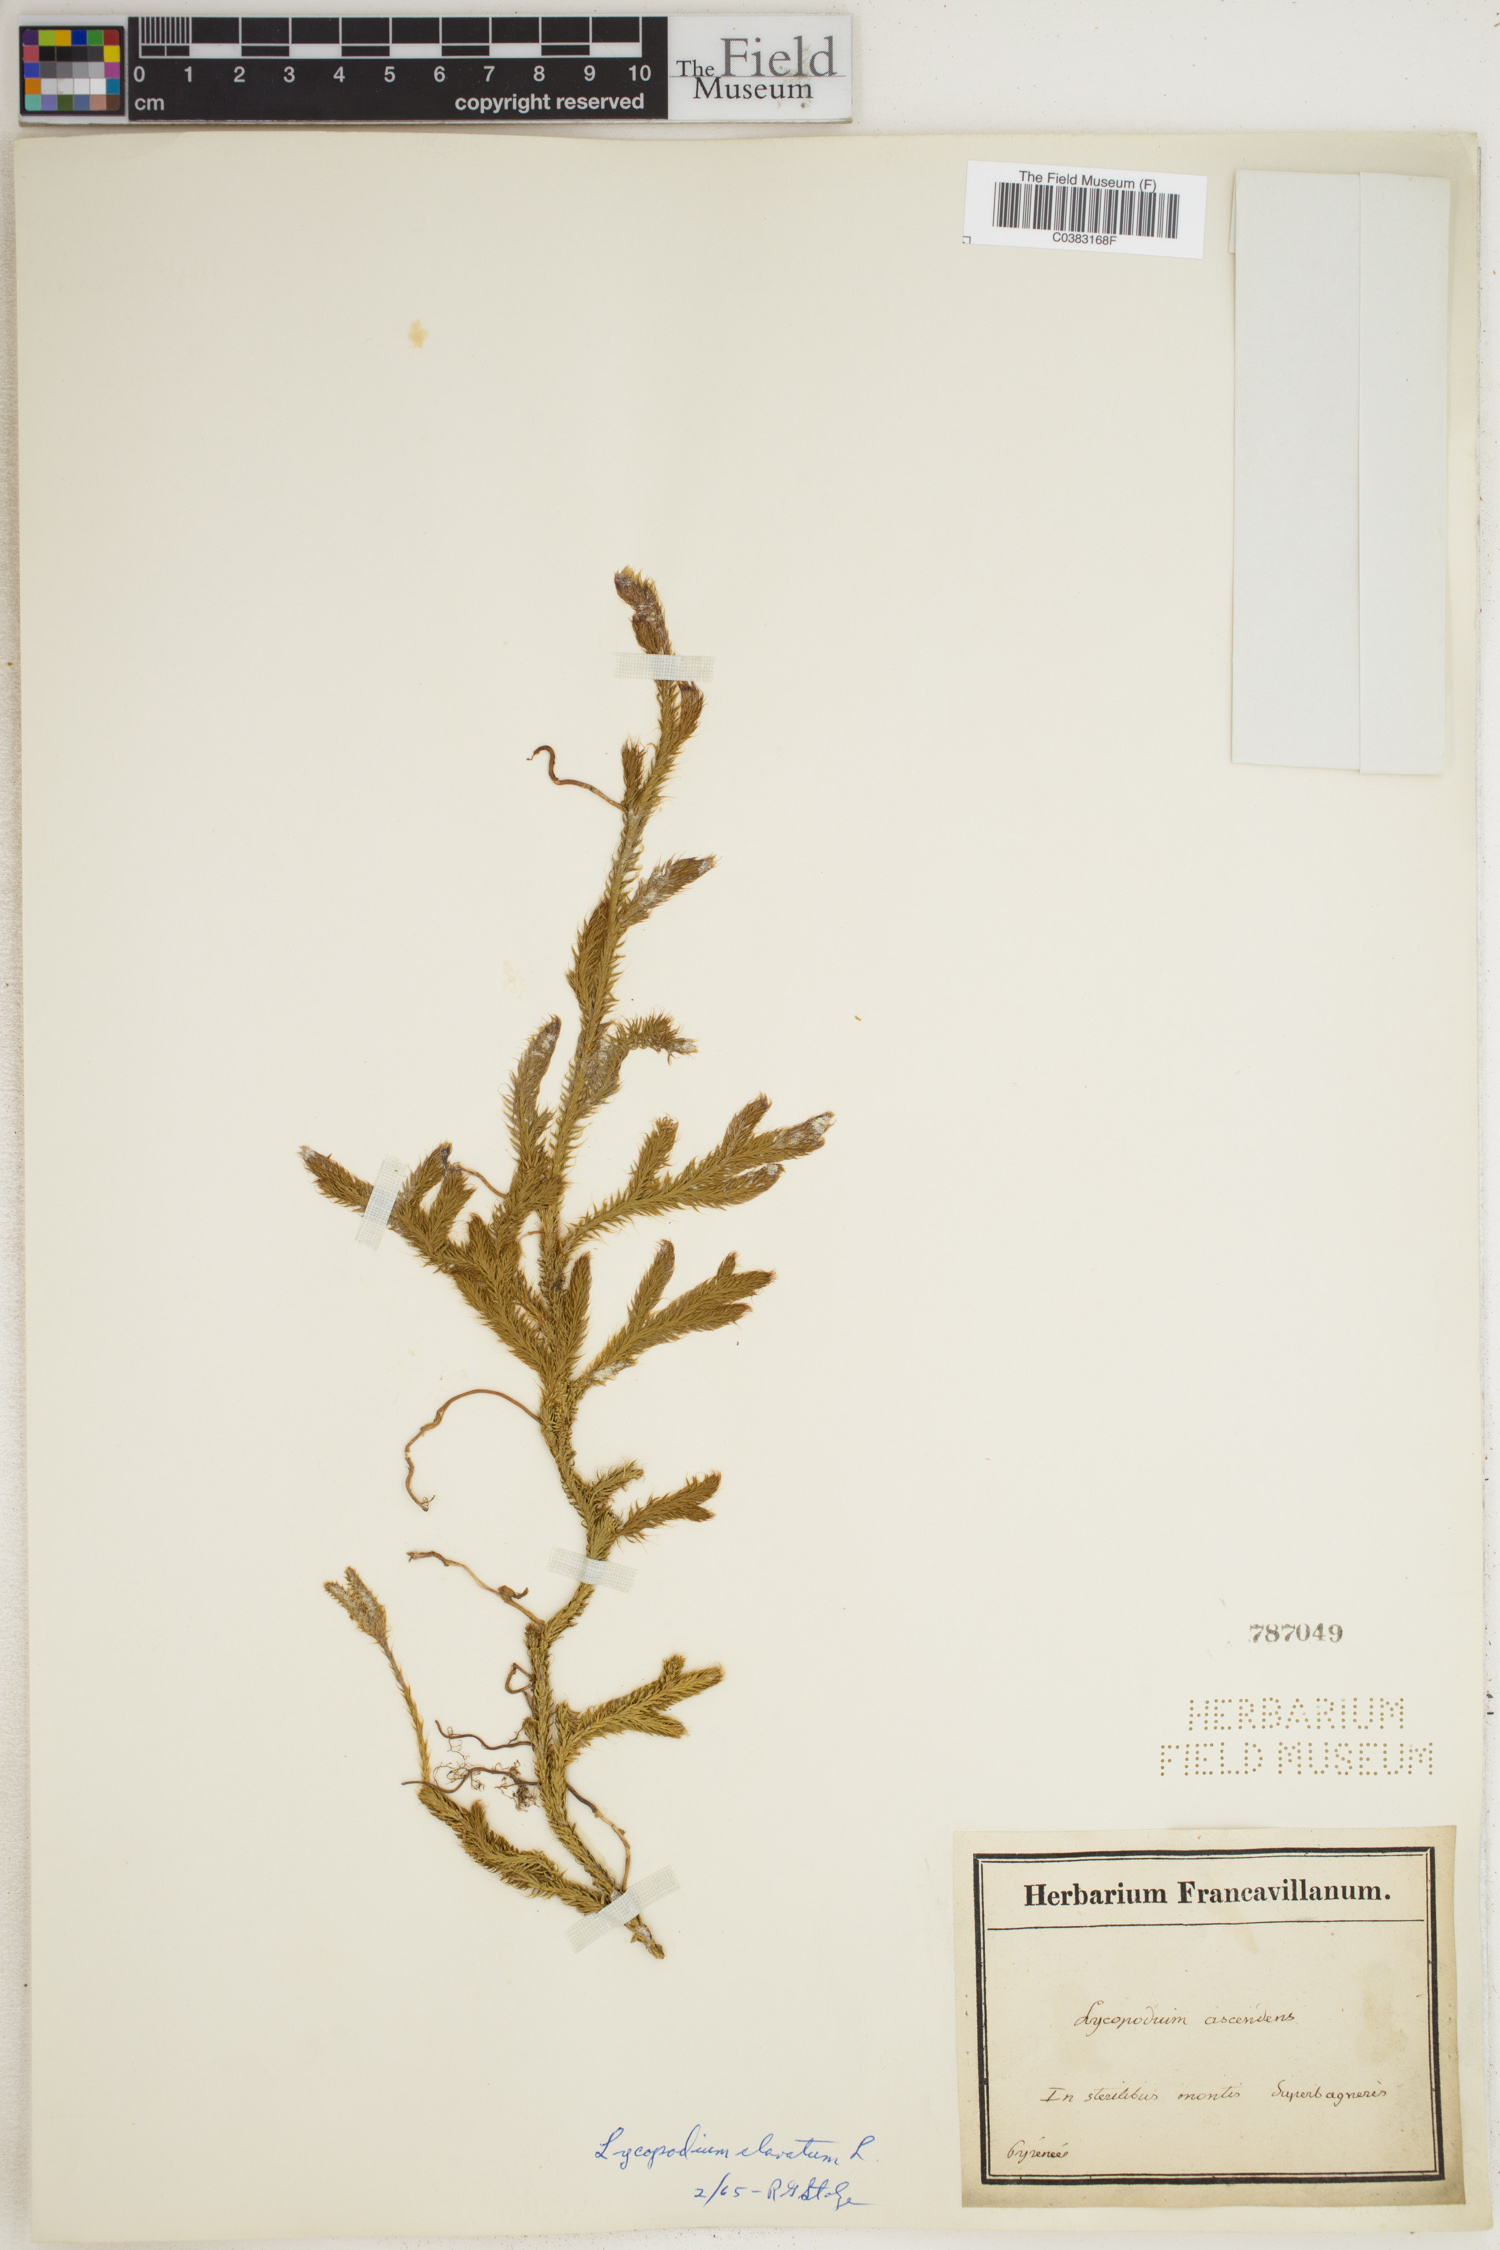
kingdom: Plantae
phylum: Tracheophyta
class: Lycopodiopsida
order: Lycopodiales
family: Lycopodiaceae
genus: Lycopodium
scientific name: Lycopodium clavatum
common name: Stag's-horn clubmoss
